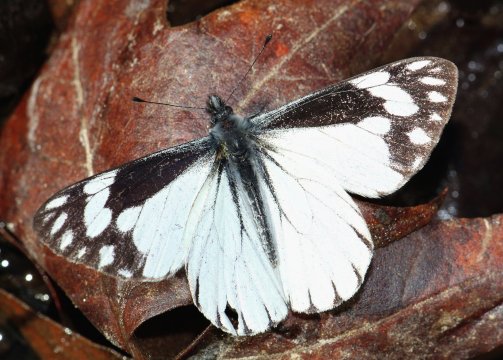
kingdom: Animalia
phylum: Arthropoda
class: Insecta
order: Lepidoptera
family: Pieridae
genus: Neophasia
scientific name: Neophasia terlooii
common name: Chiricahua White
